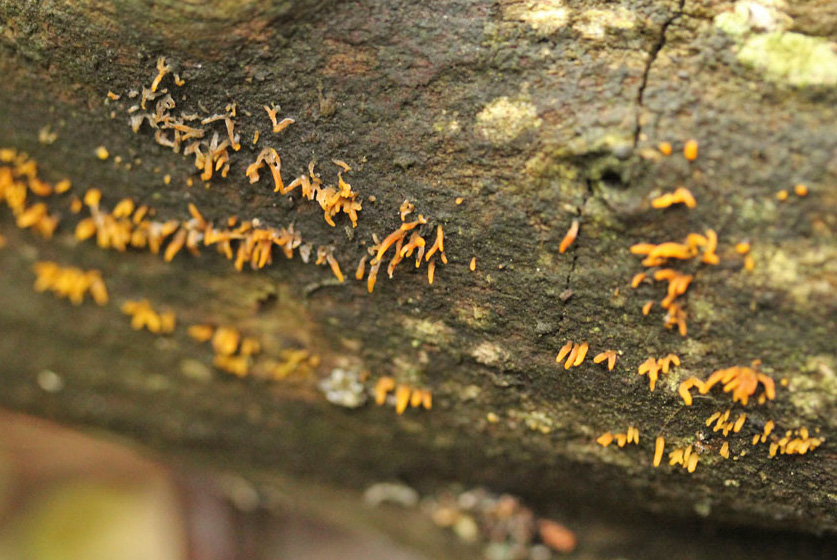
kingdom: Fungi
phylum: Basidiomycota
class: Dacrymycetes
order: Dacrymycetales
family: Dacrymycetaceae
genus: Calocera
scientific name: Calocera cornea
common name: liden guldgaffel
